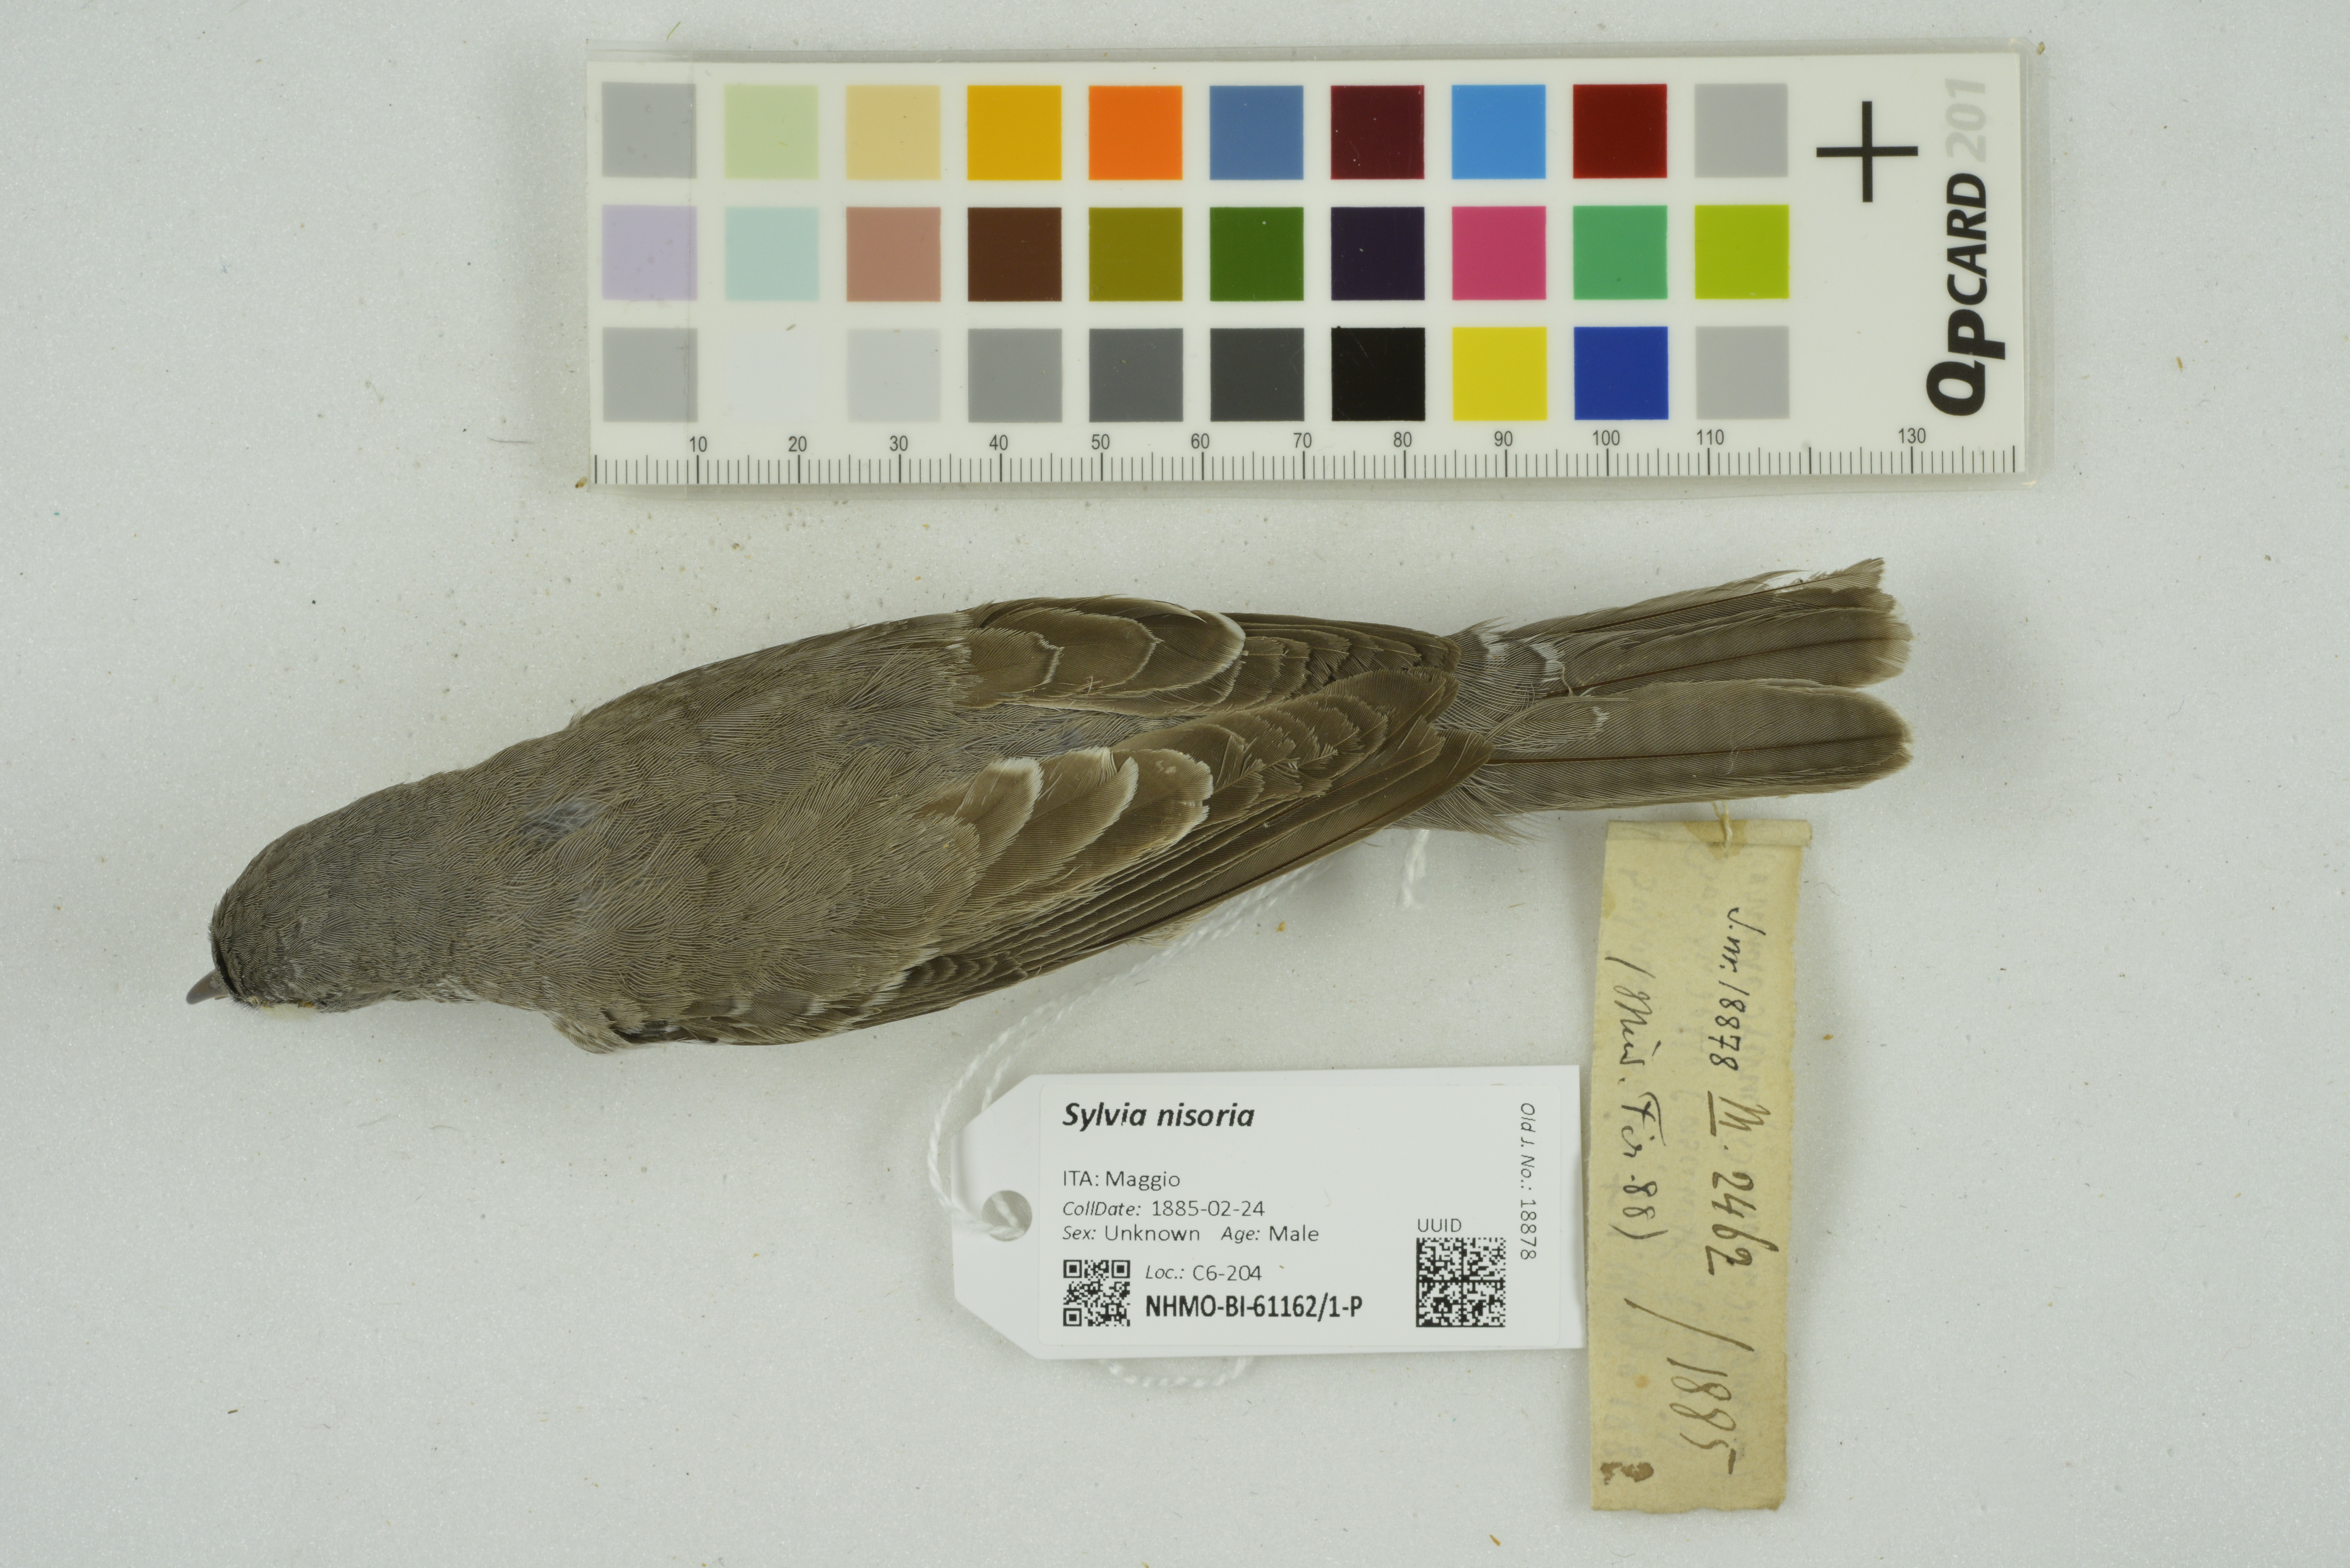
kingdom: Animalia
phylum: Chordata
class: Aves
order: Passeriformes
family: Sylviidae
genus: Sylvia
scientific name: Sylvia nisoria
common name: Barred warbler
